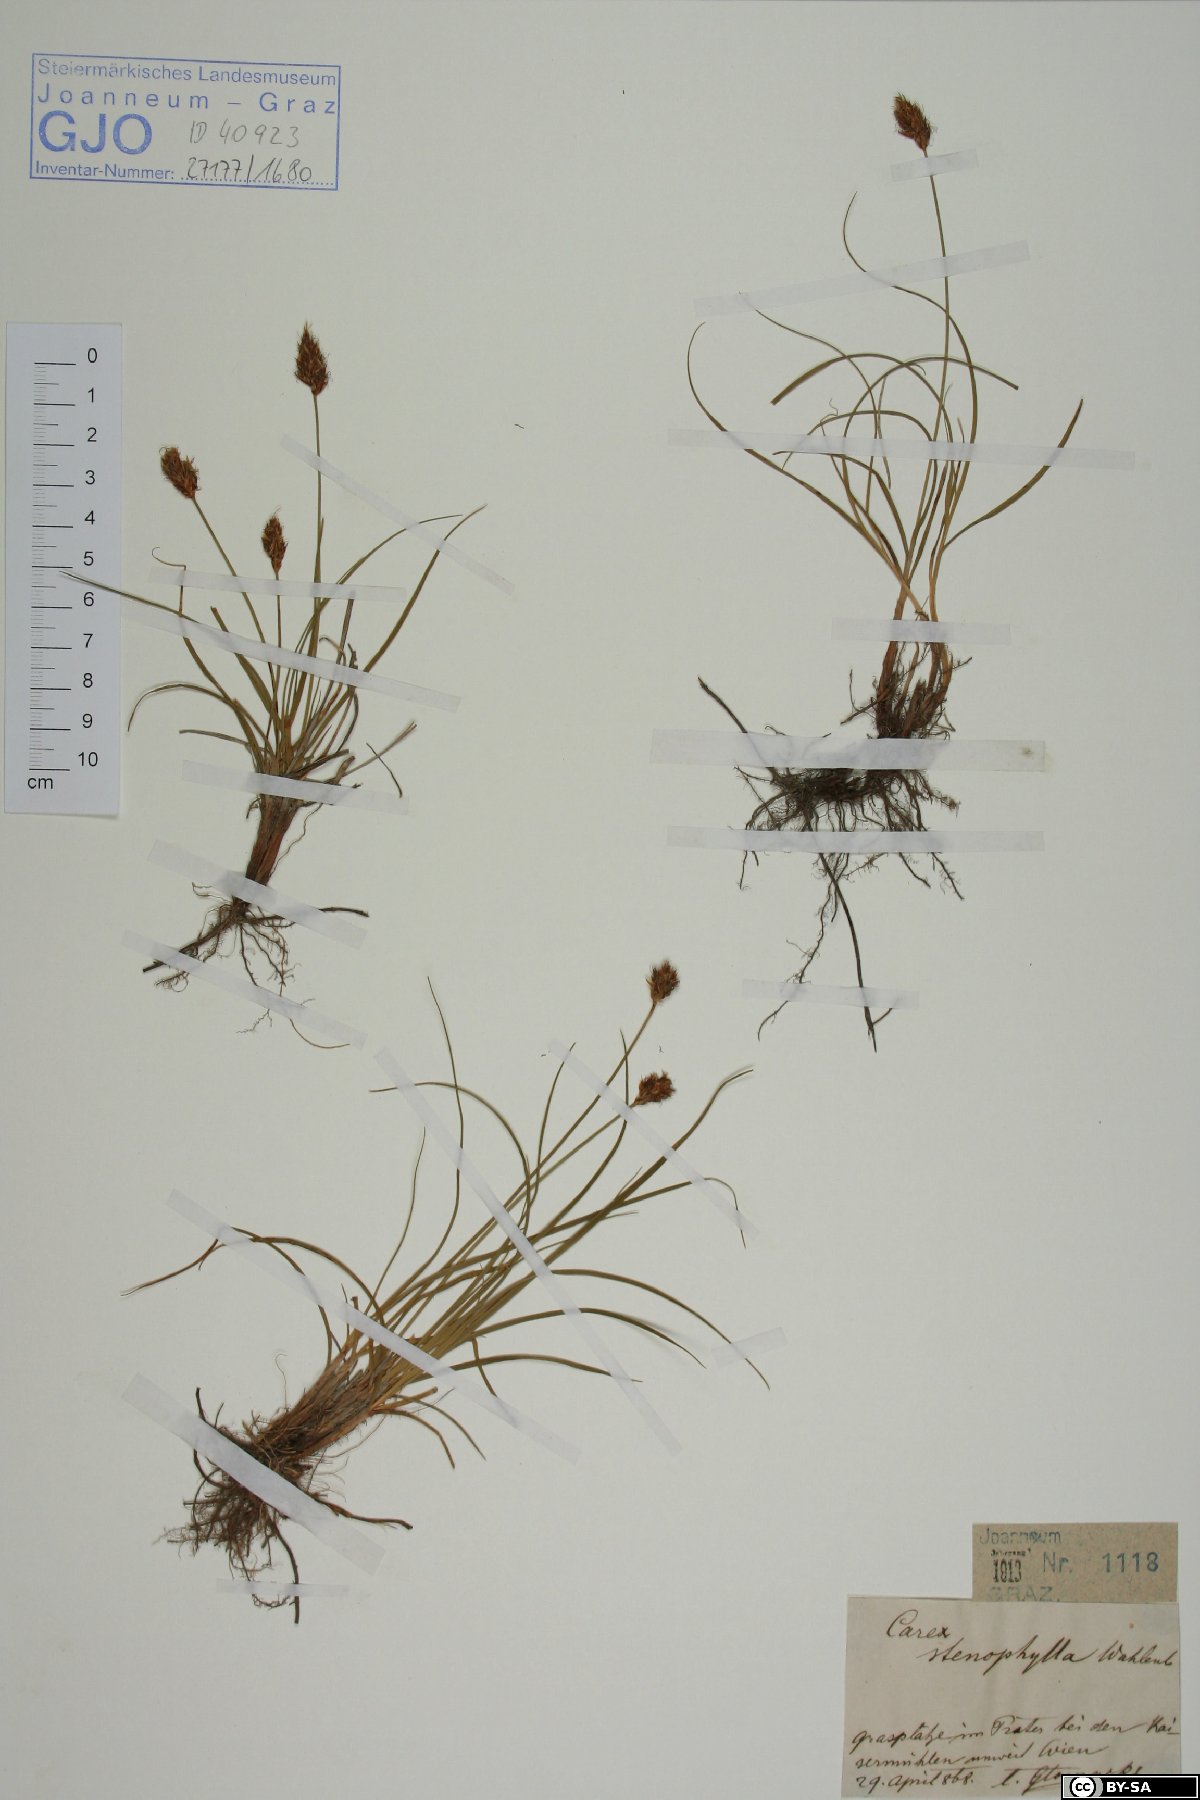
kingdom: Plantae
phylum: Tracheophyta
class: Liliopsida
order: Poales
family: Cyperaceae
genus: Carex
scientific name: Carex stenophylla
